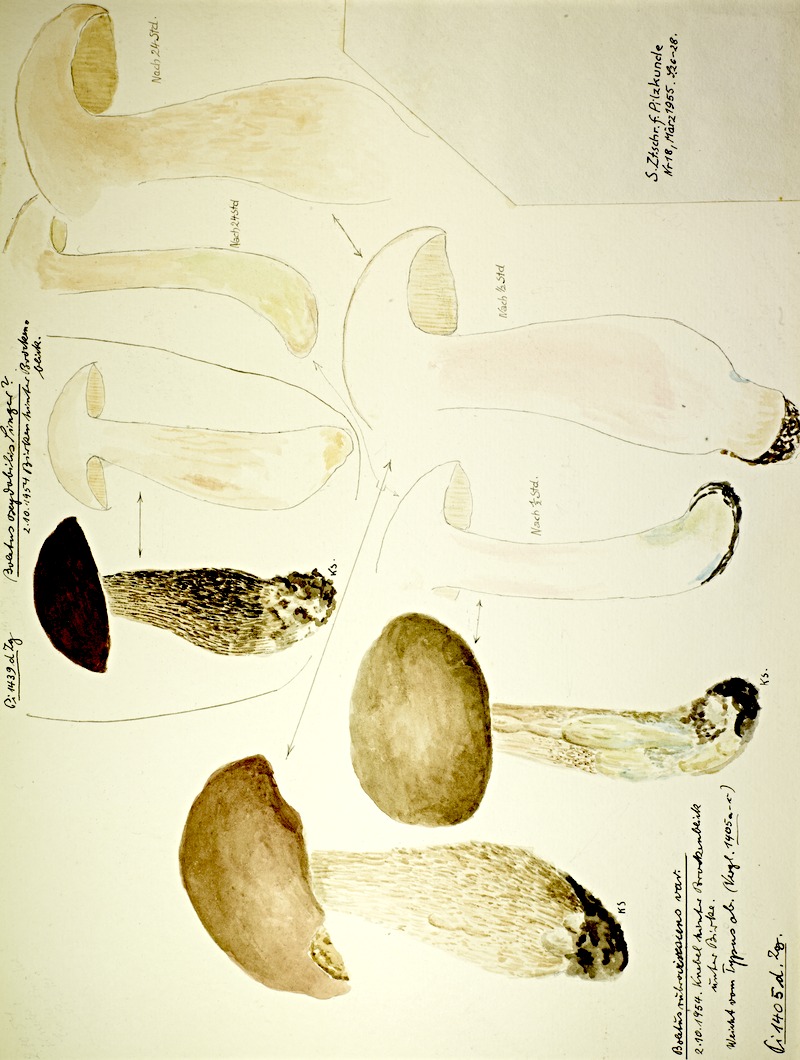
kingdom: Fungi
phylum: Basidiomycota
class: Agaricomycetes
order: Boletales
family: Boletaceae
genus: Leccinum
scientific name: Leccinum scabrum
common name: Blushing bolete
